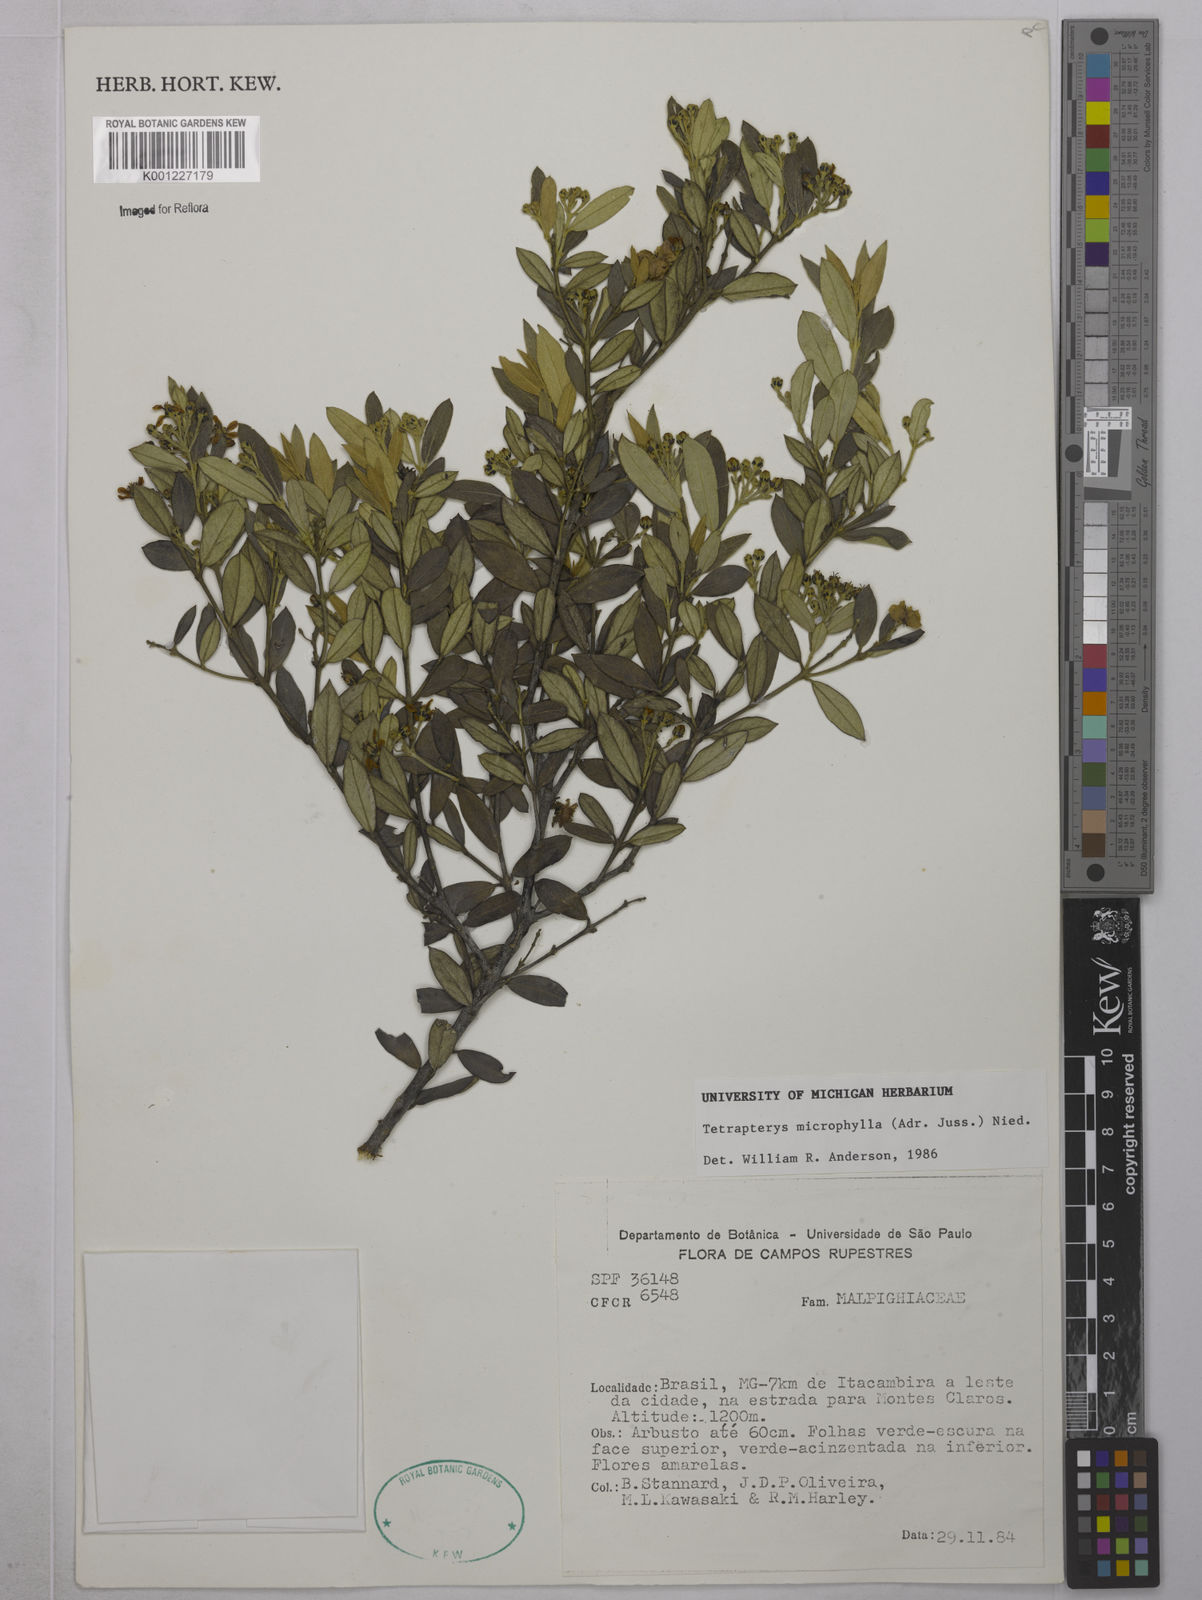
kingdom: Plantae
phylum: Tracheophyta
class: Magnoliopsida
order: Malpighiales
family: Malpighiaceae
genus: Glicophyllum
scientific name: Glicophyllum microphyllum
